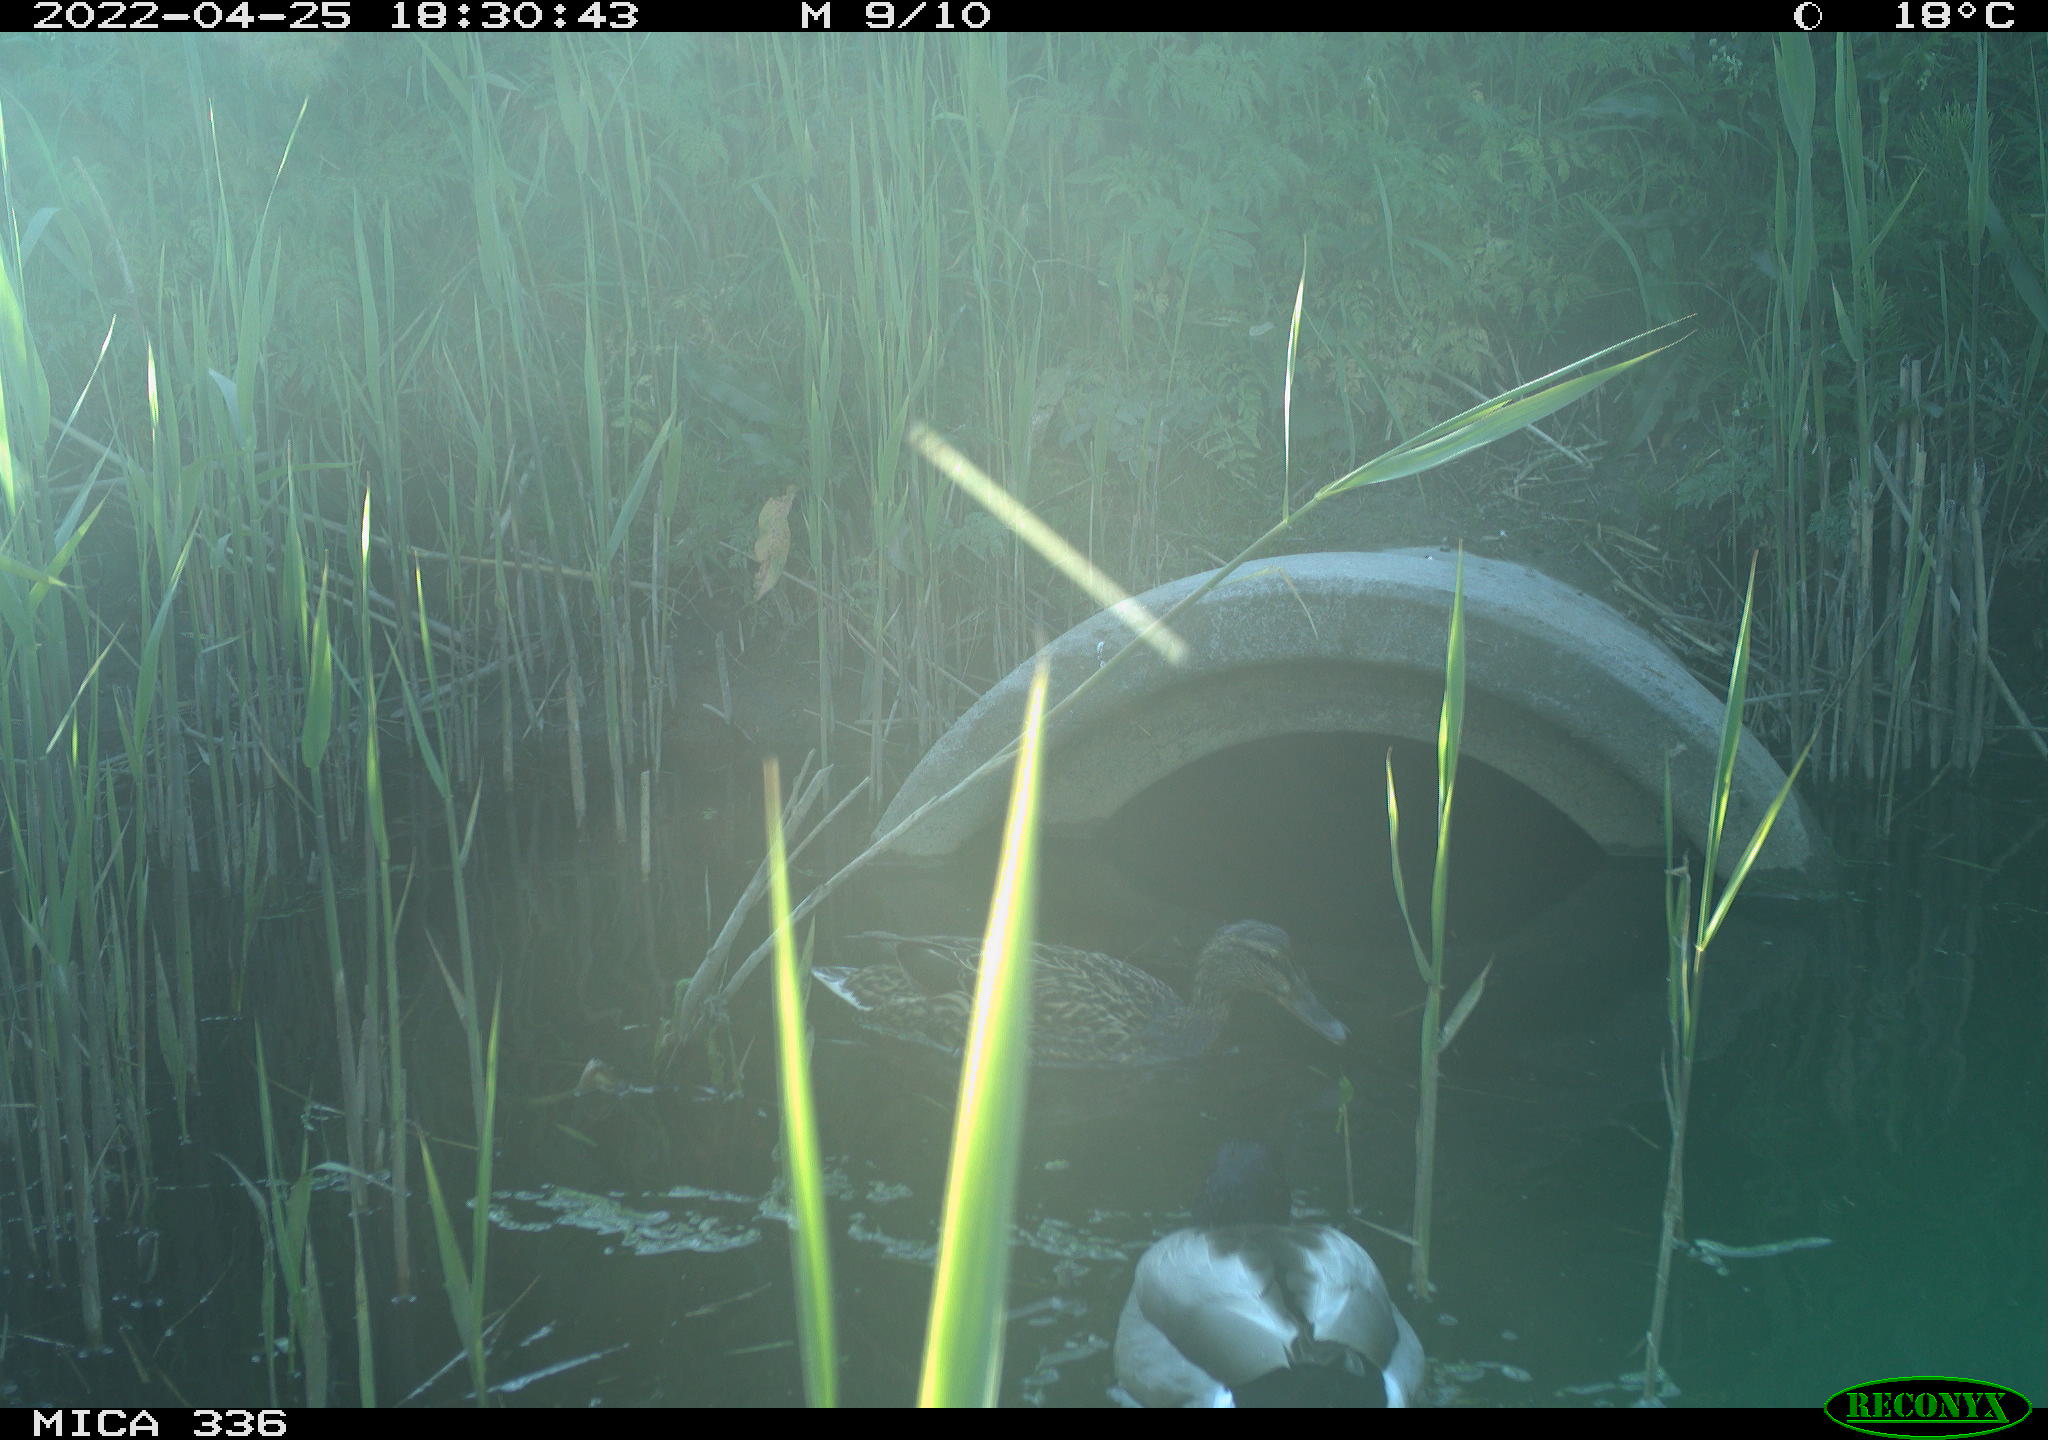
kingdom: Animalia
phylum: Chordata
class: Aves
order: Anseriformes
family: Anatidae
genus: Mareca
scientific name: Mareca strepera
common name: Gadwall
